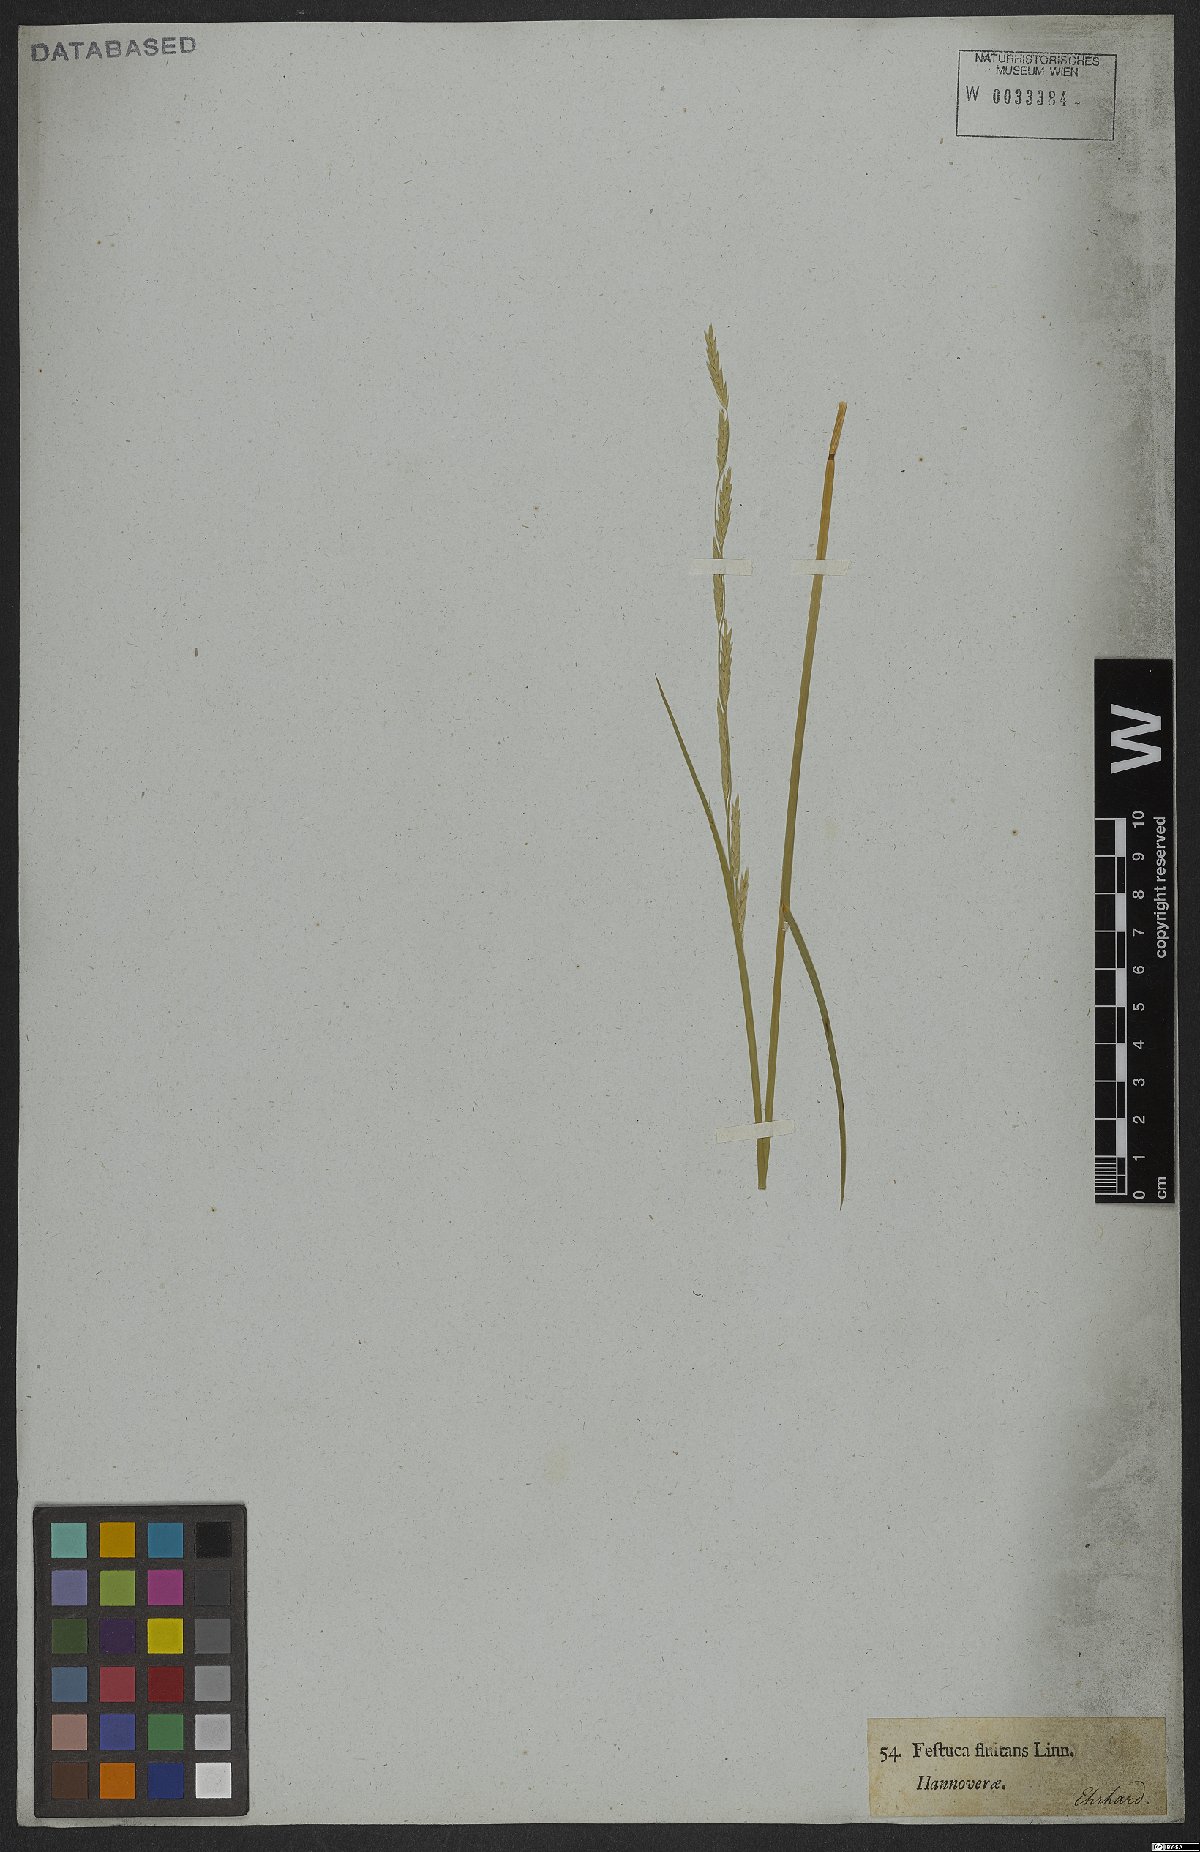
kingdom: Plantae
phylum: Tracheophyta
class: Liliopsida
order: Poales
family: Poaceae
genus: Glyceria
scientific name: Glyceria fluitans
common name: Floating sweet-grass
